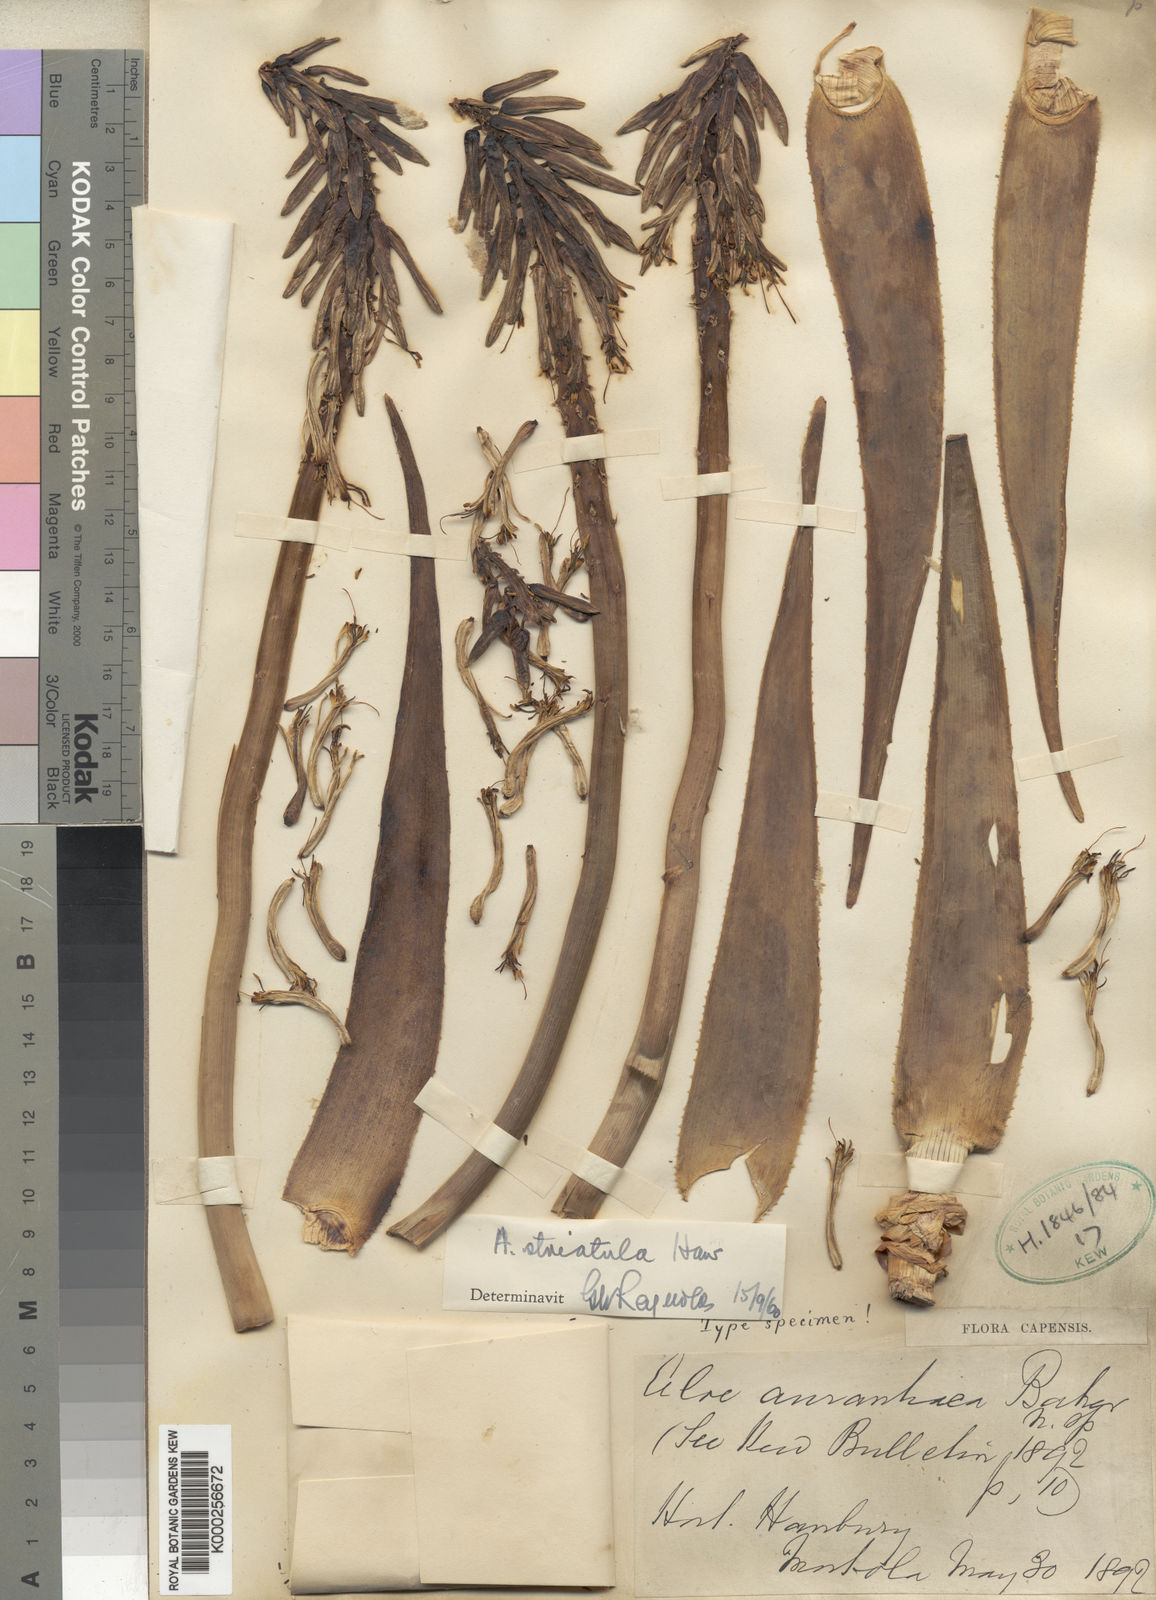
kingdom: Plantae
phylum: Tracheophyta
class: Liliopsida
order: Asparagales
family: Asphodelaceae
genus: Aloiampelos
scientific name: Aloiampelos striatula
